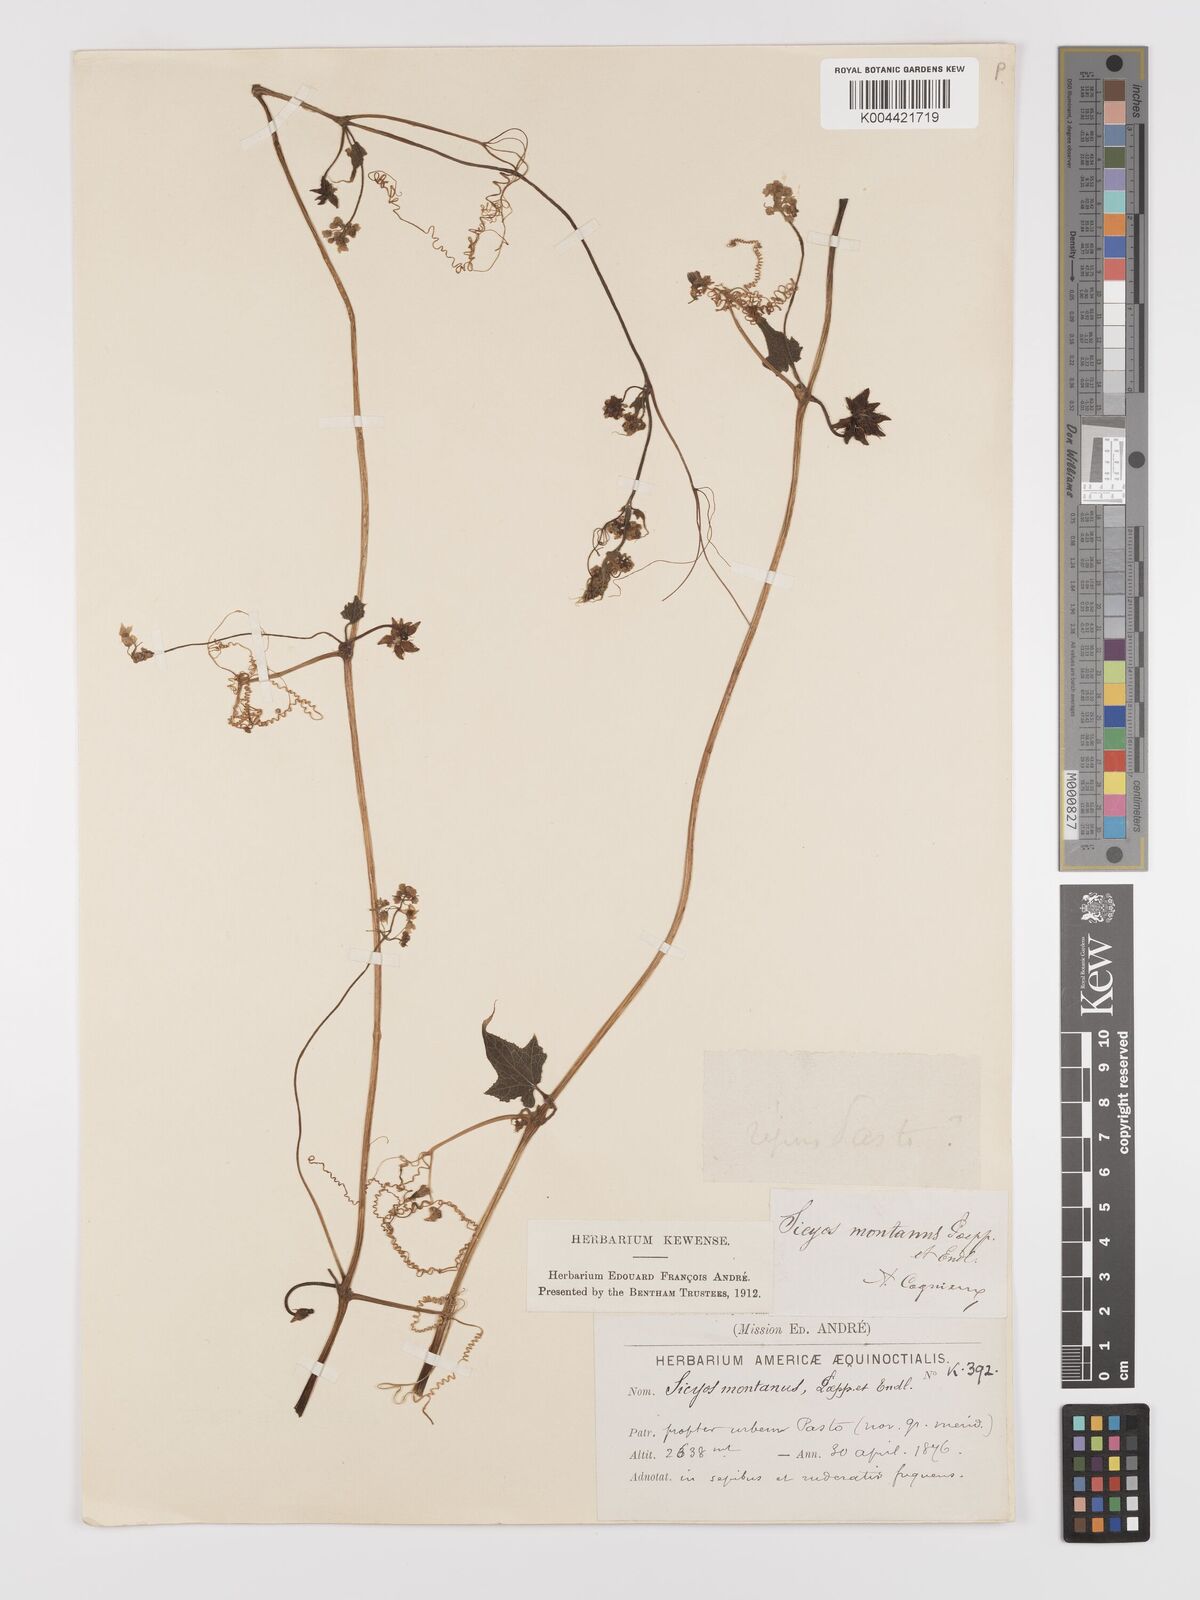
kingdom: Plantae
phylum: Tracheophyta
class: Magnoliopsida
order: Cucurbitales
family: Cucurbitaceae
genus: Sicyos
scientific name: Sicyos
